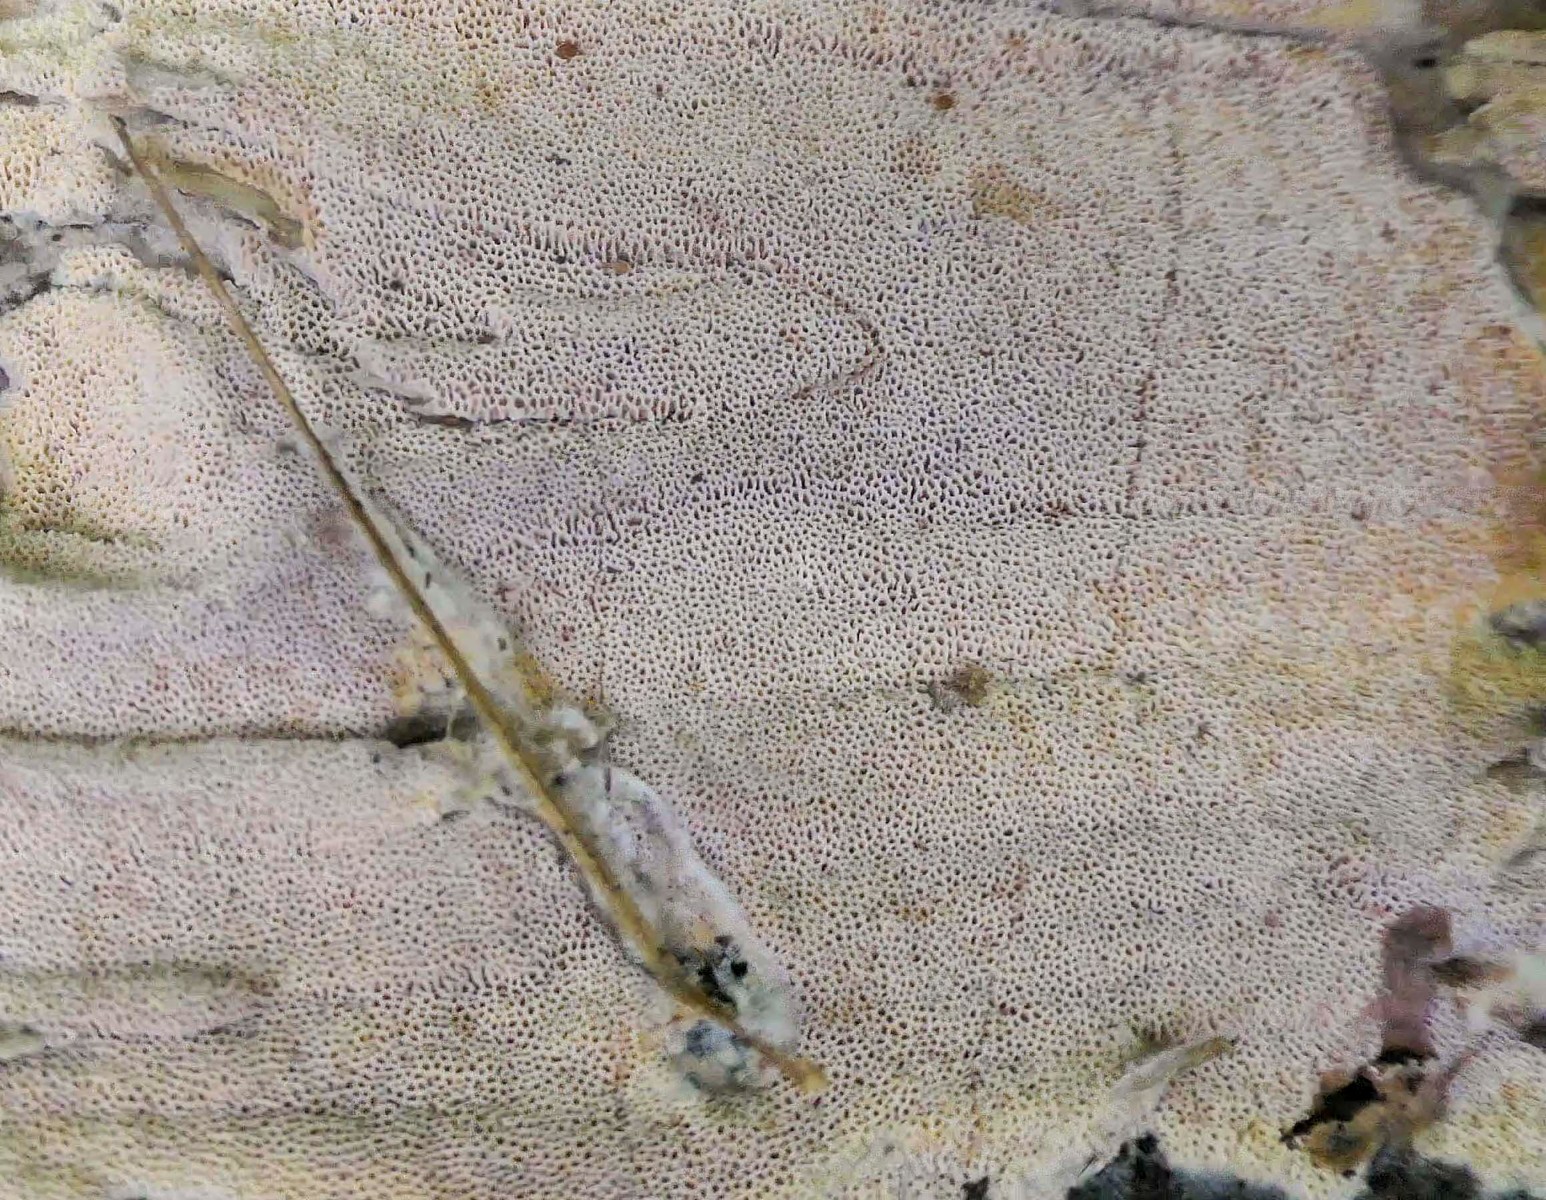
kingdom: Fungi
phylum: Basidiomycota
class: Agaricomycetes
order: Polyporales
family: Irpicaceae
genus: Ceriporia
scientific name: Ceriporia viridans
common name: foranderlig voksporesvamp
